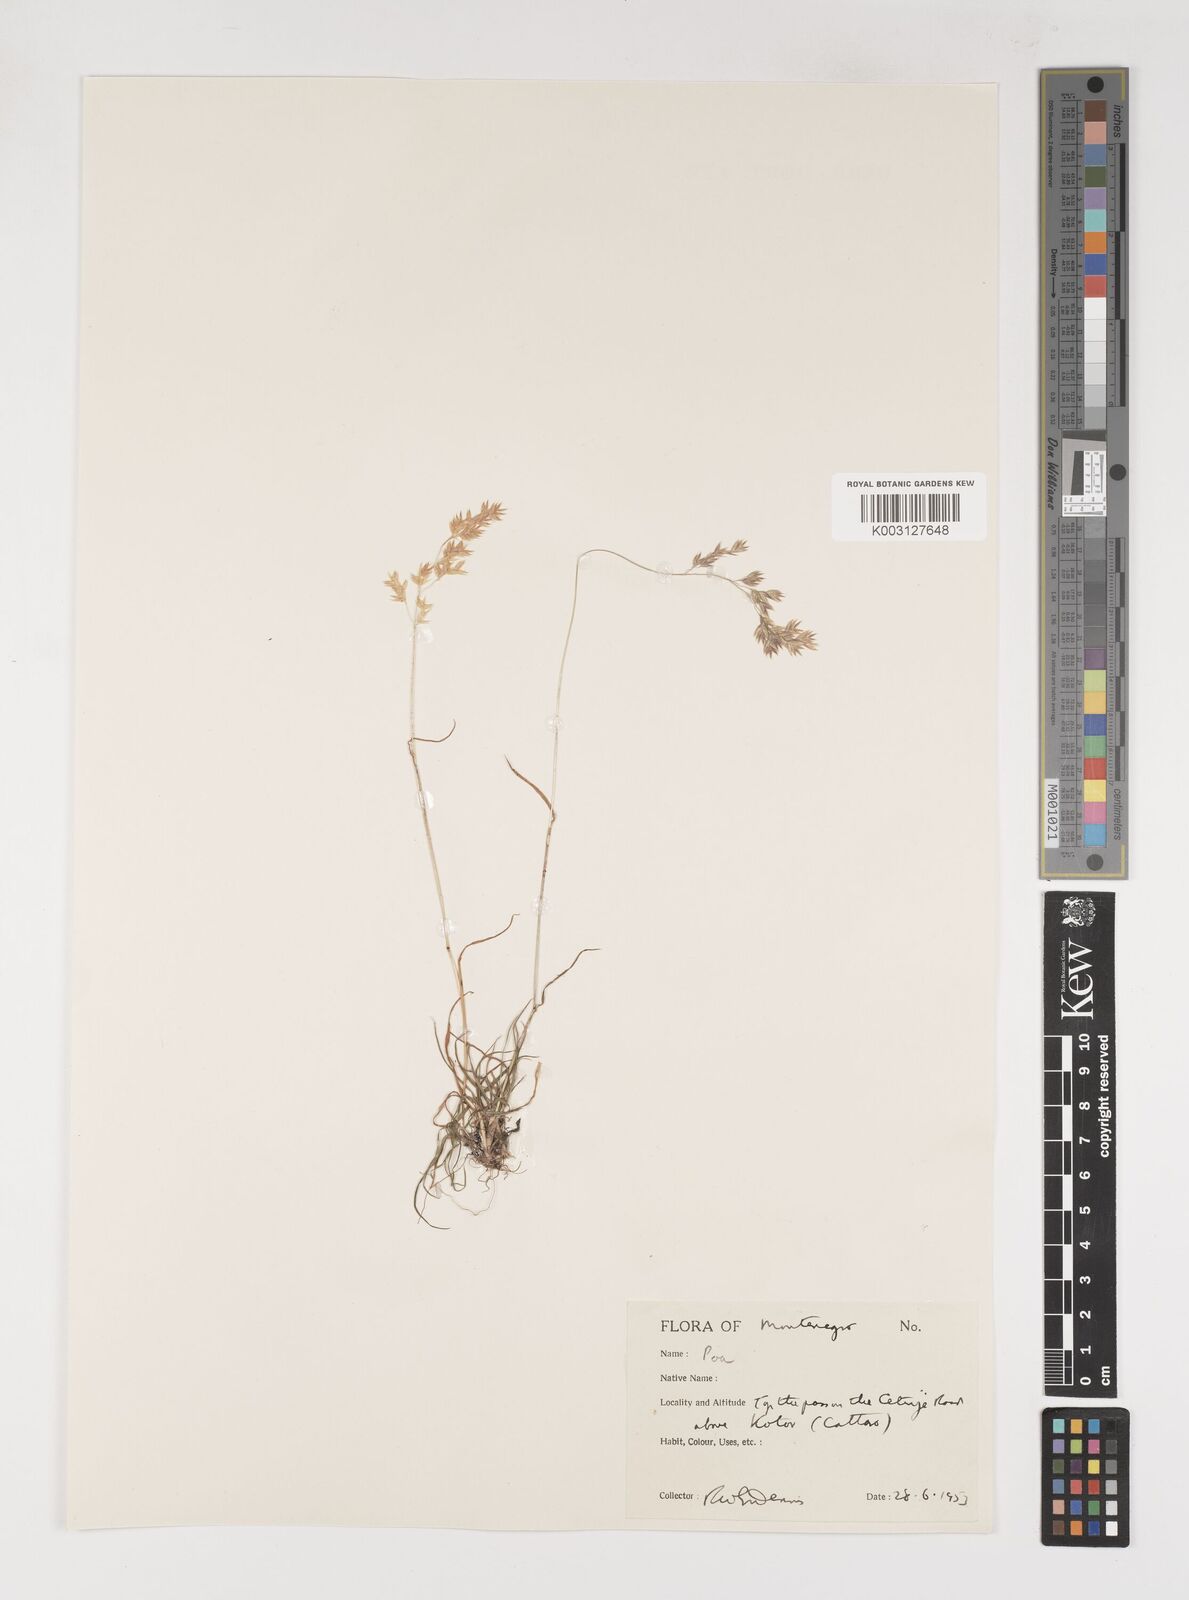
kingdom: Plantae
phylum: Tracheophyta
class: Liliopsida
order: Poales
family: Poaceae
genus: Poa
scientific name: Poa
